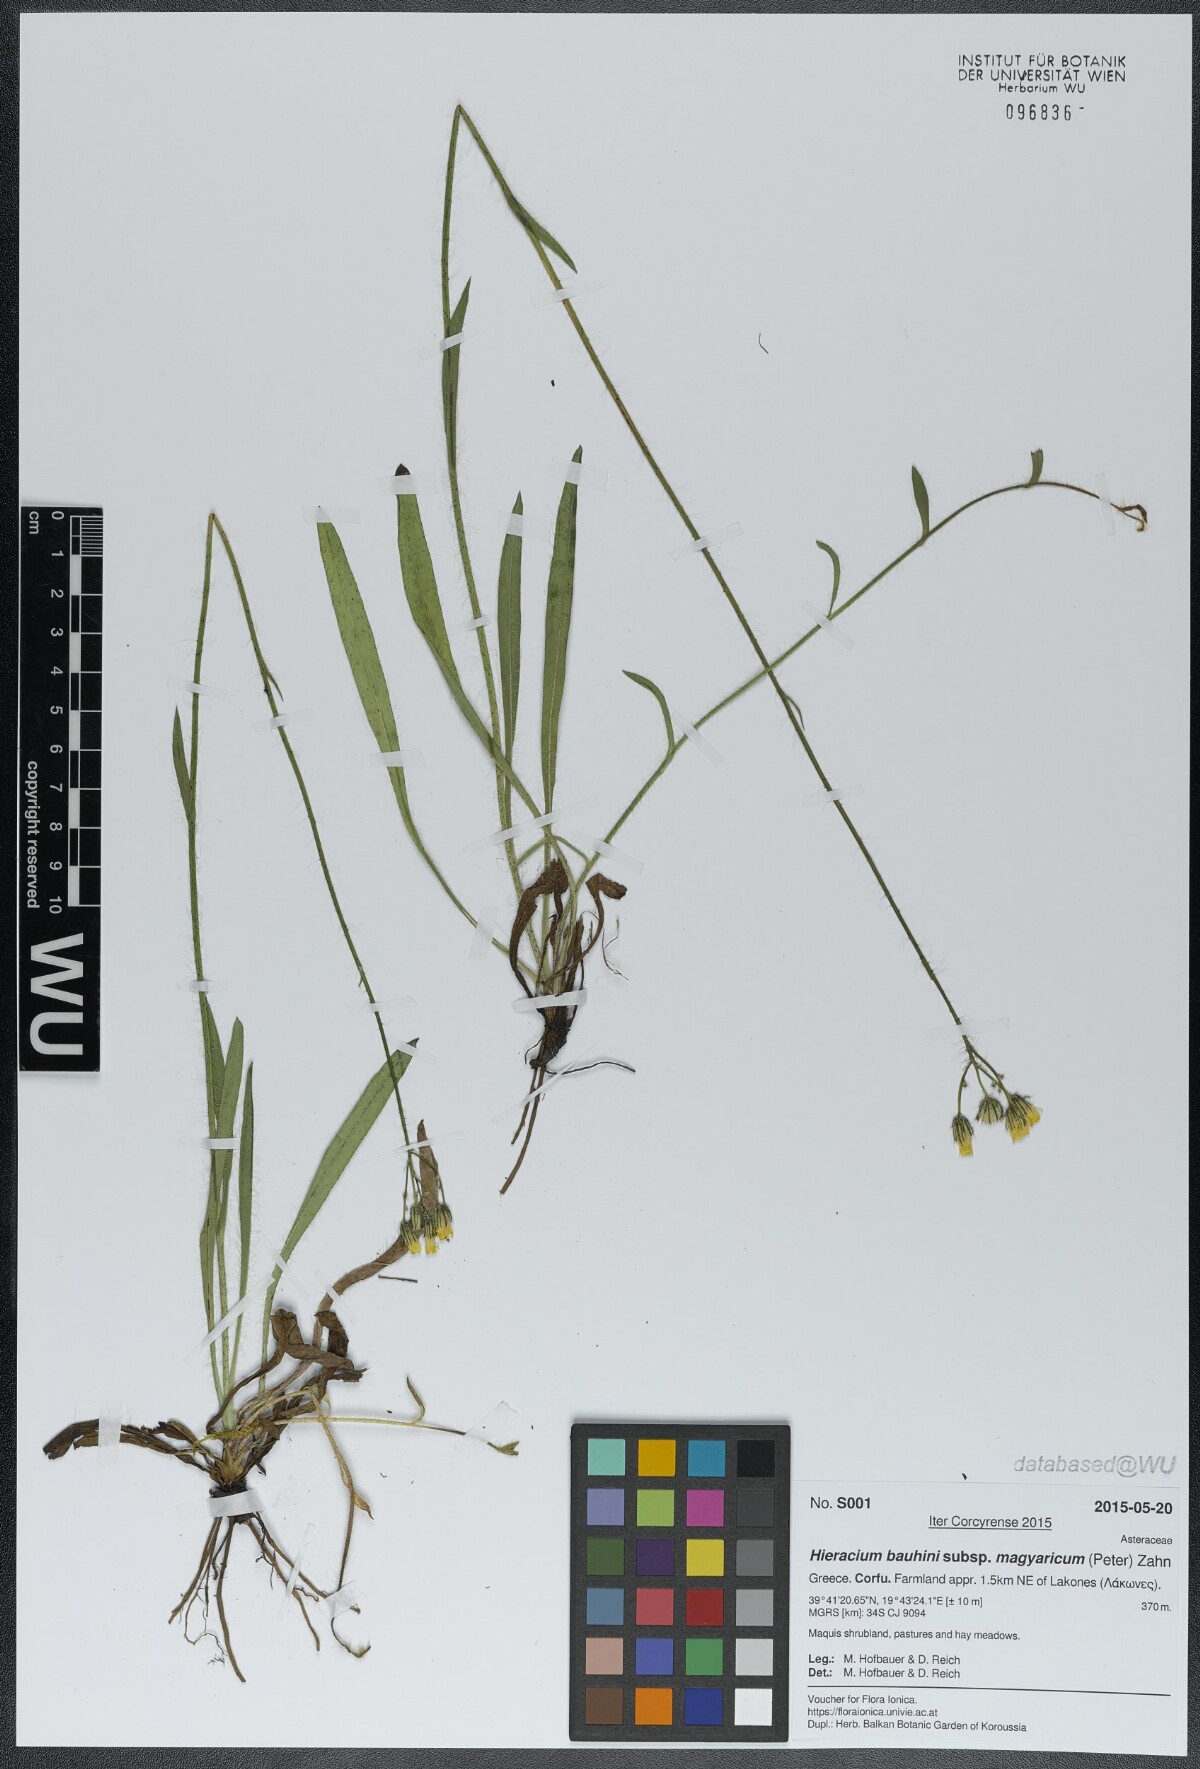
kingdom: Plantae
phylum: Tracheophyta
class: Magnoliopsida
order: Asterales
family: Asteraceae
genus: Pilosella
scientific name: Pilosella bauhini
